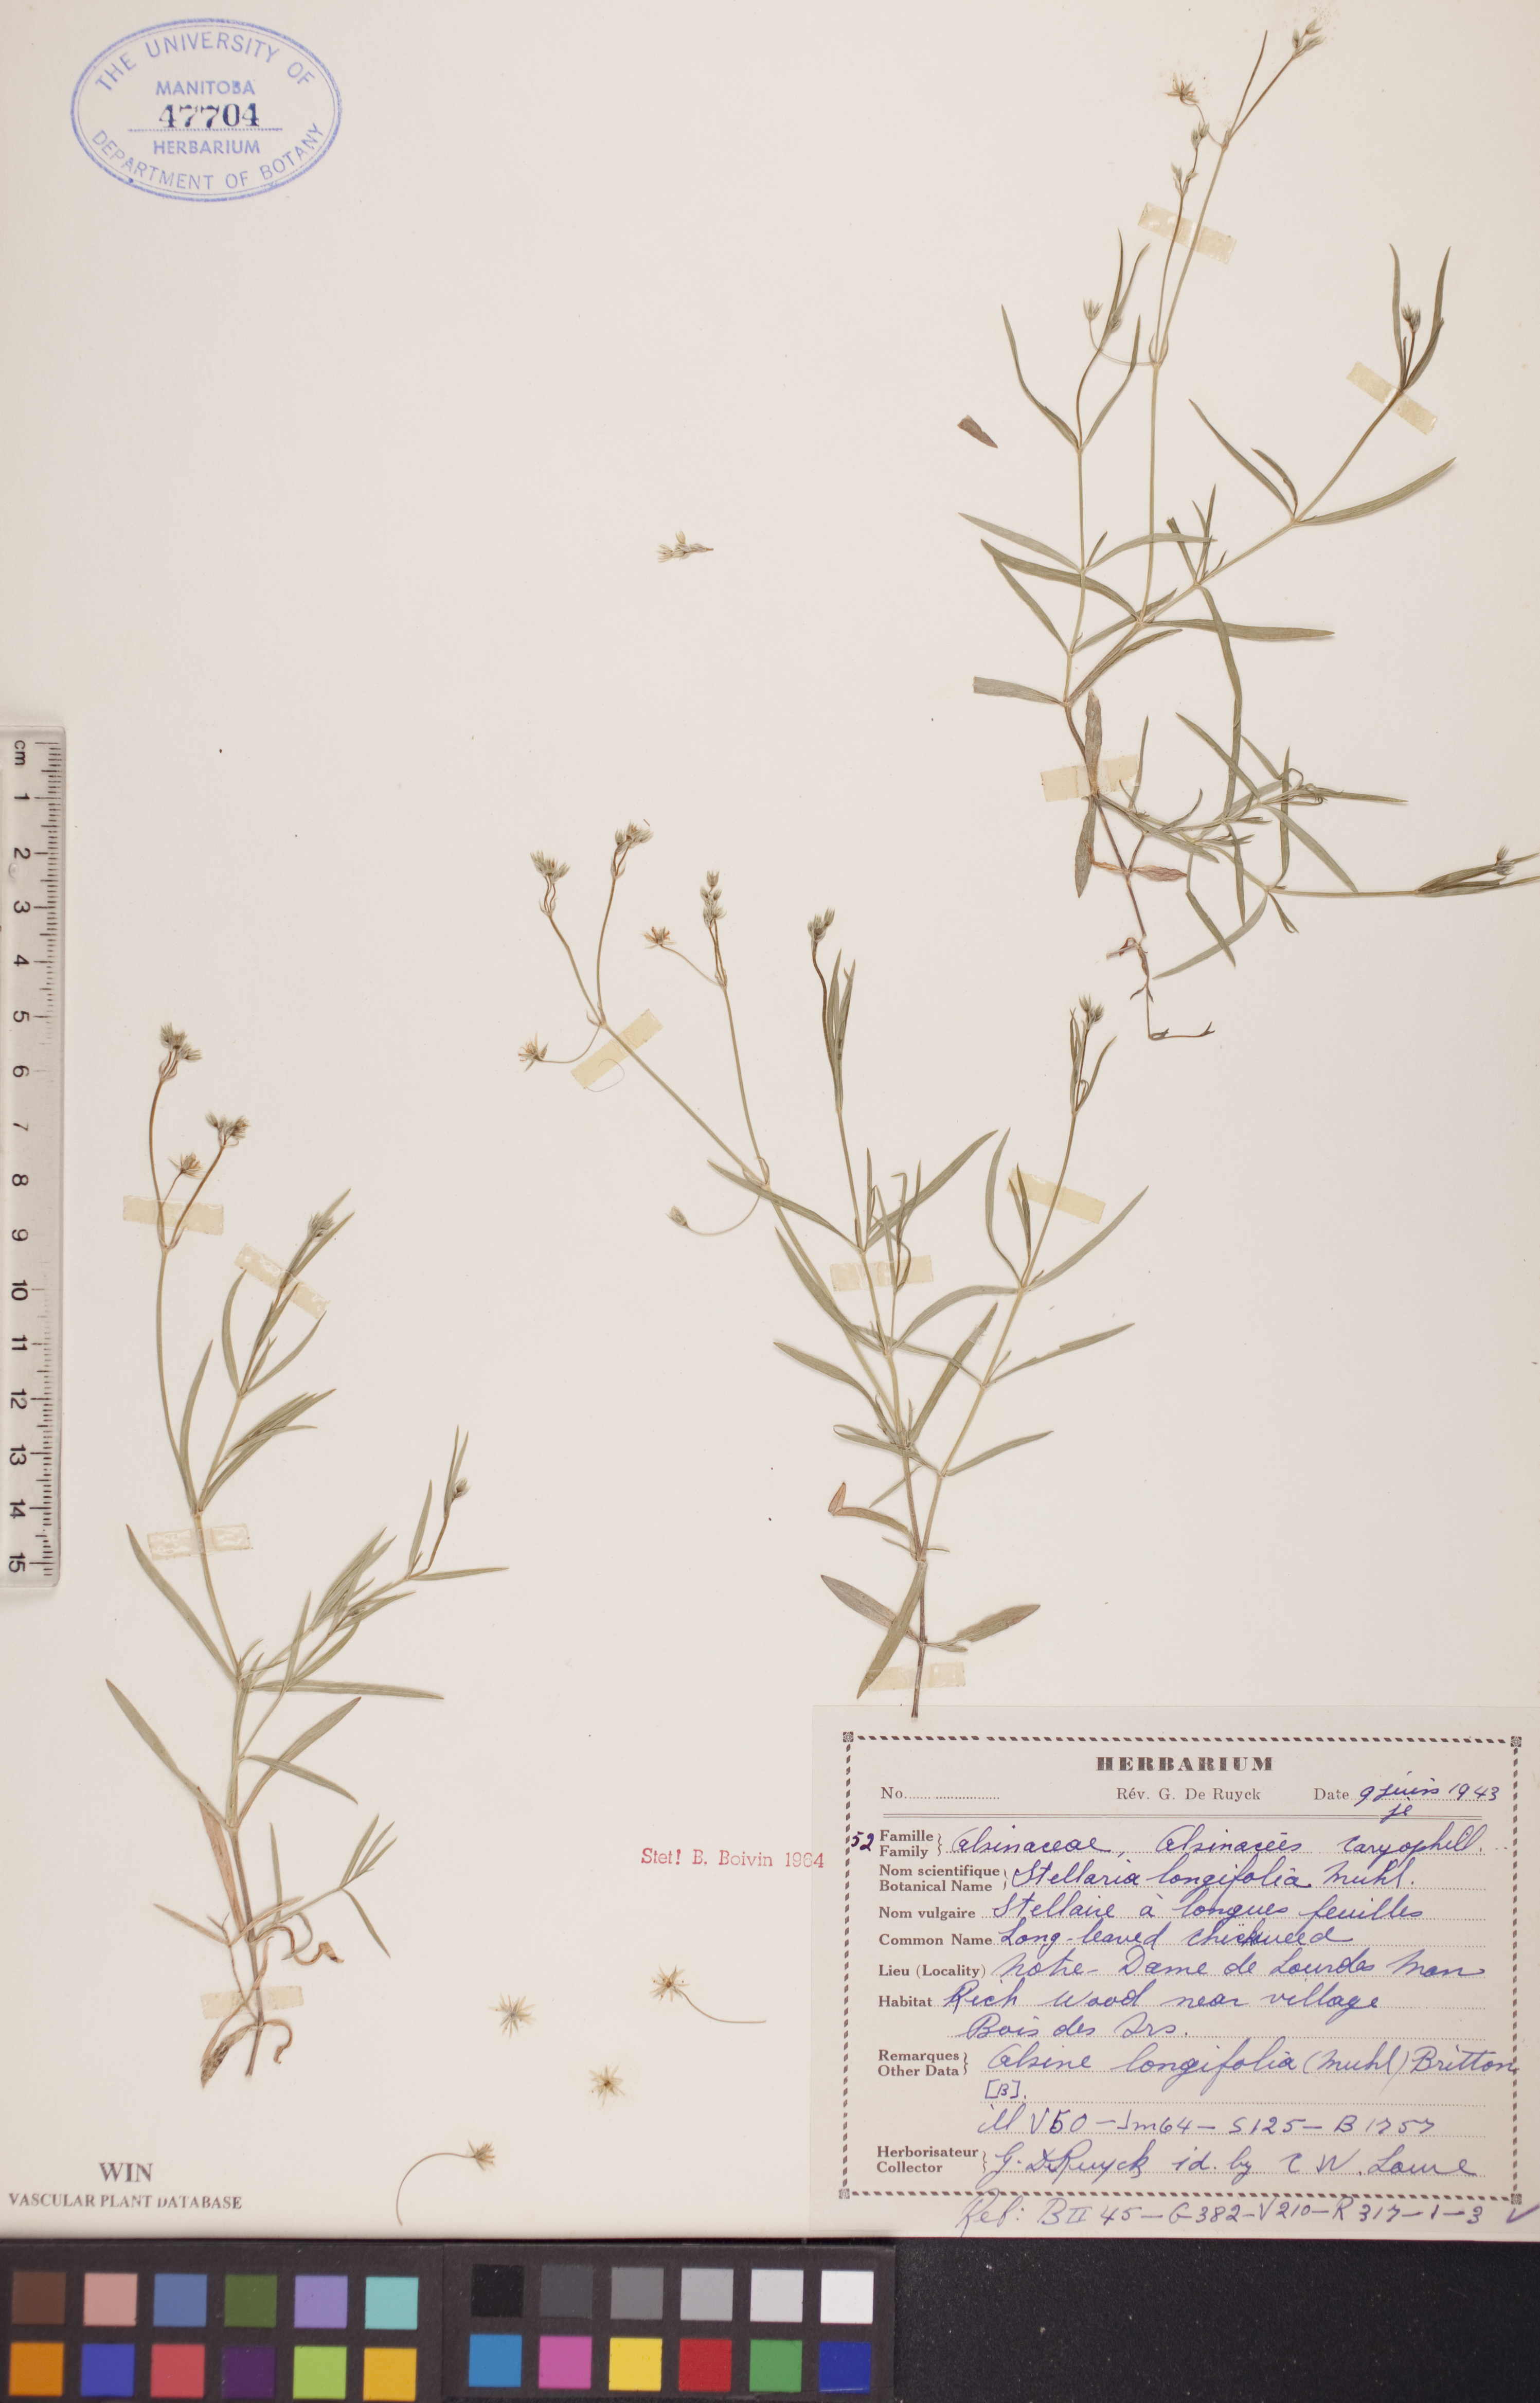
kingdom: Plantae
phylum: Tracheophyta
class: Magnoliopsida
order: Caryophyllales
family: Caryophyllaceae
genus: Stellaria
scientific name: Stellaria longifolia
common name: Long-leaved chickweed
